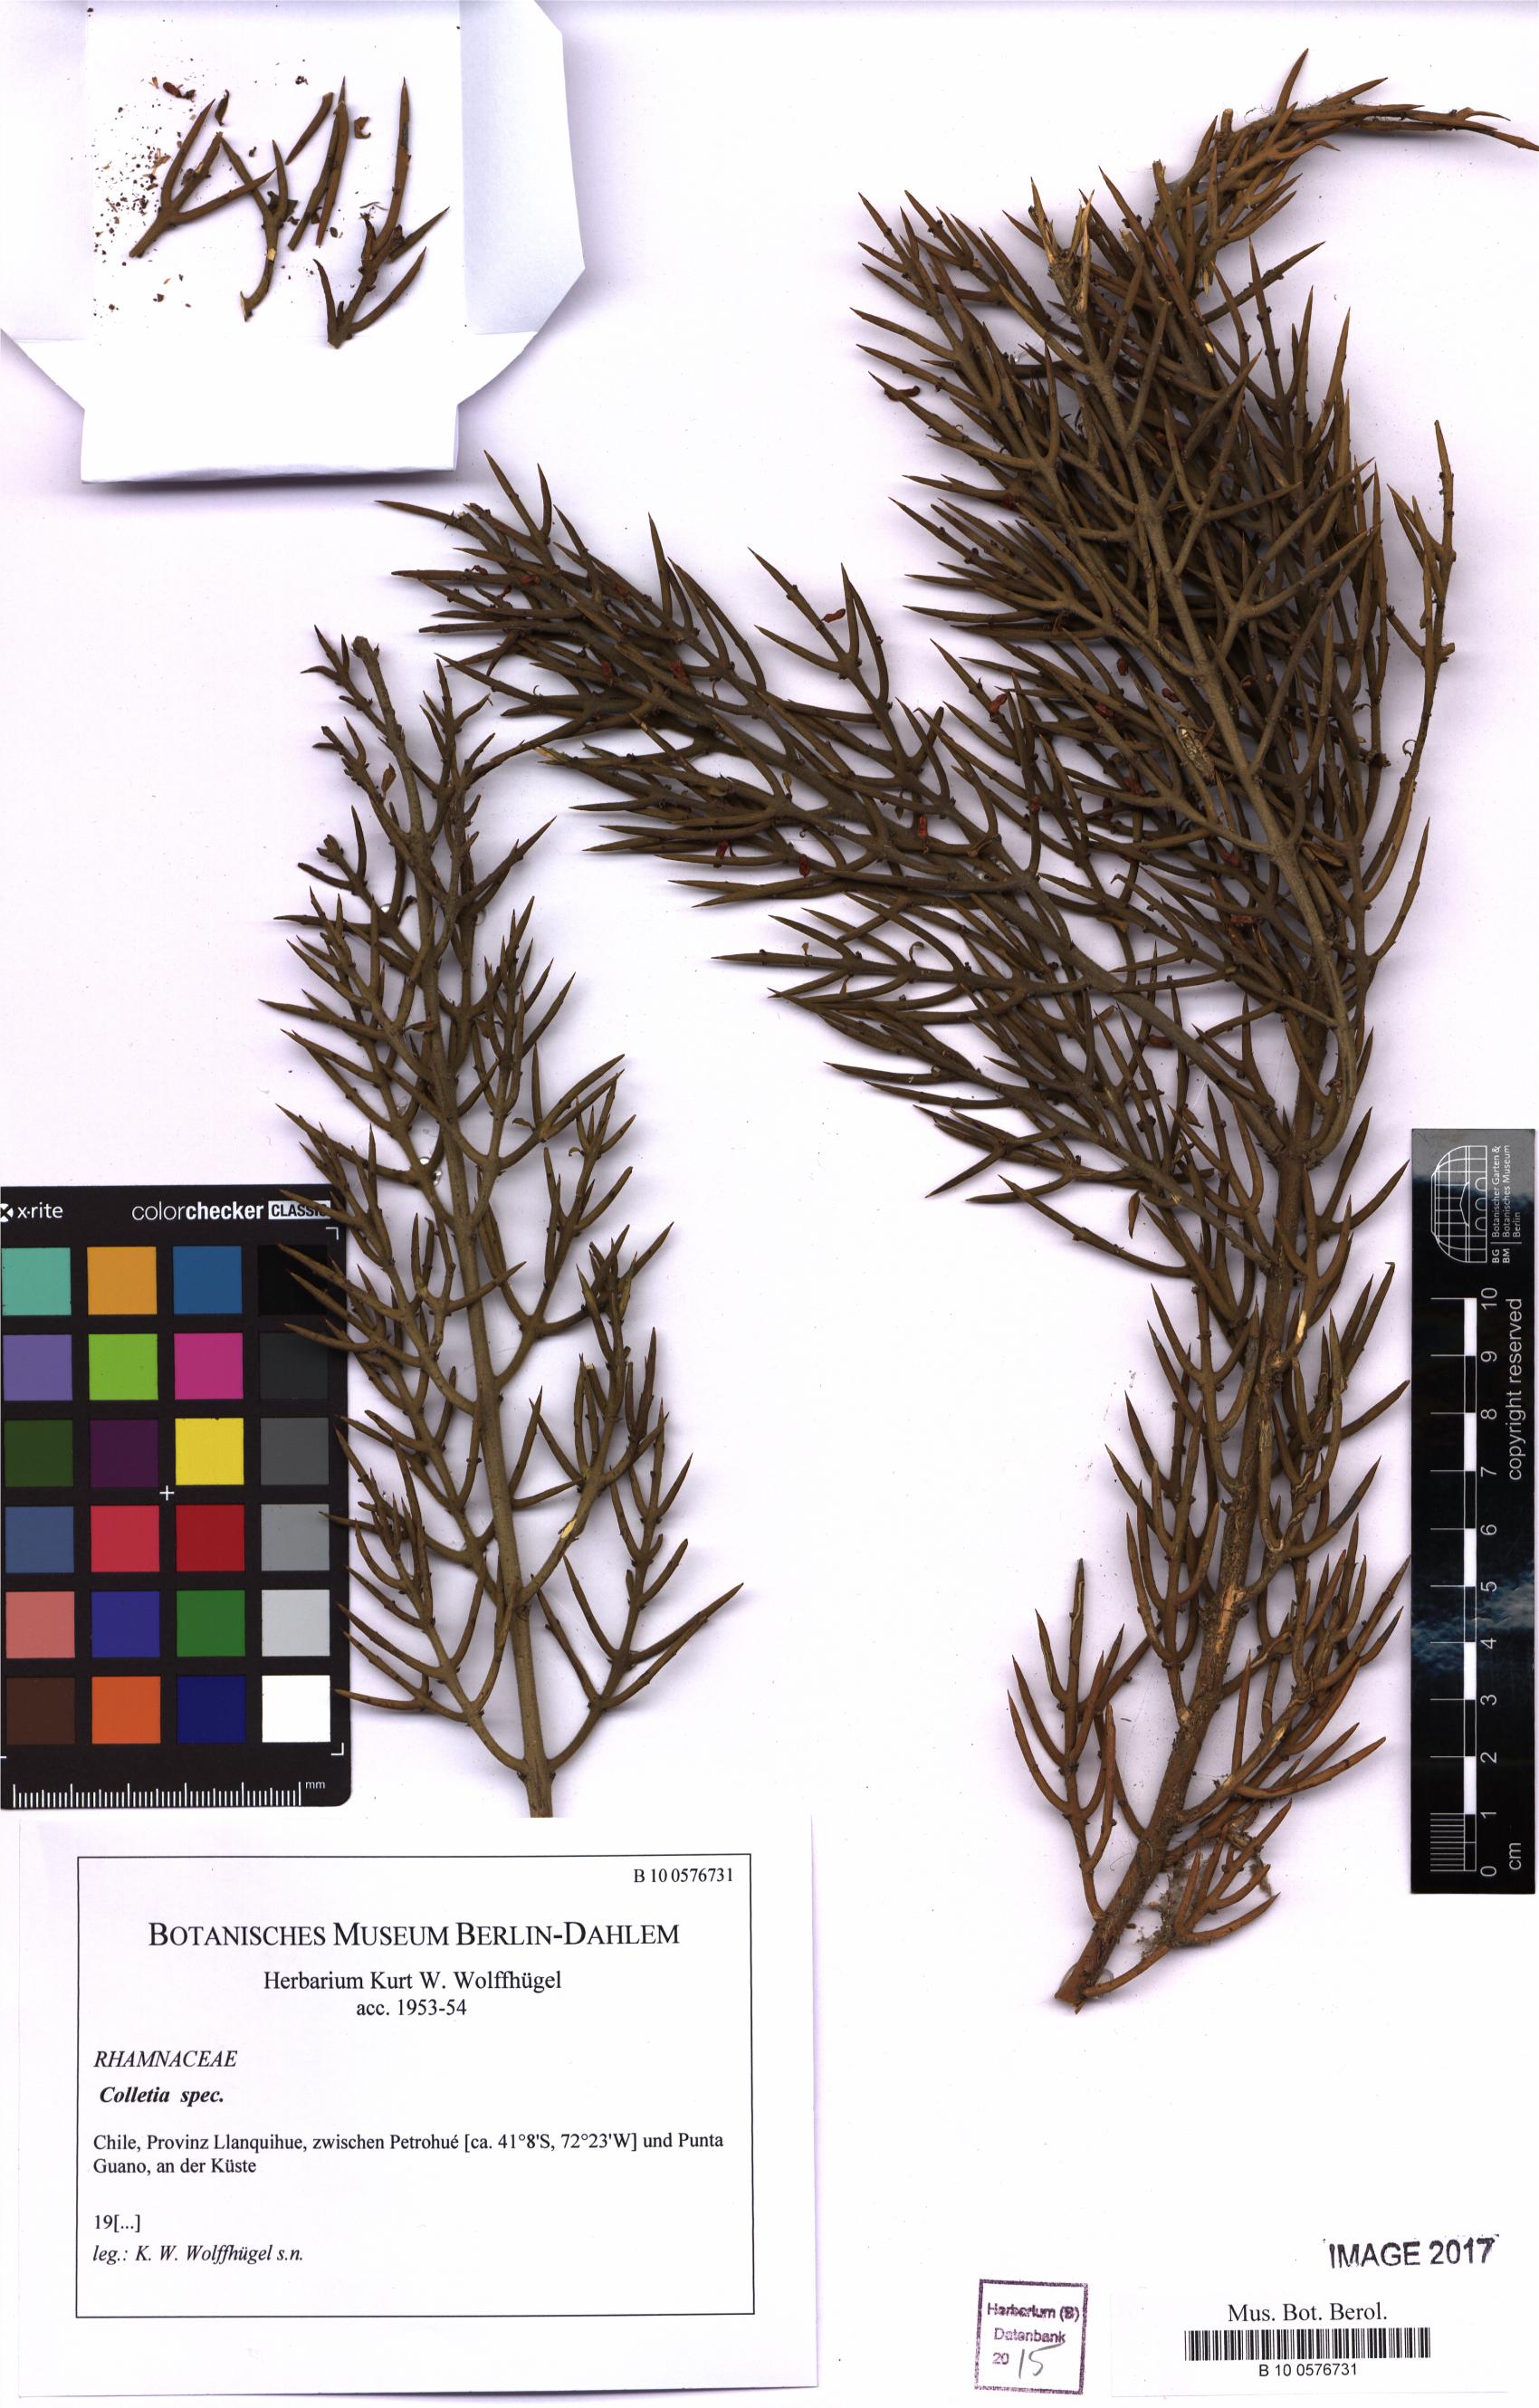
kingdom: Plantae
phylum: Tracheophyta
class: Magnoliopsida
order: Rosales
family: Rhamnaceae
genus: Colletia
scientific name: Colletia
